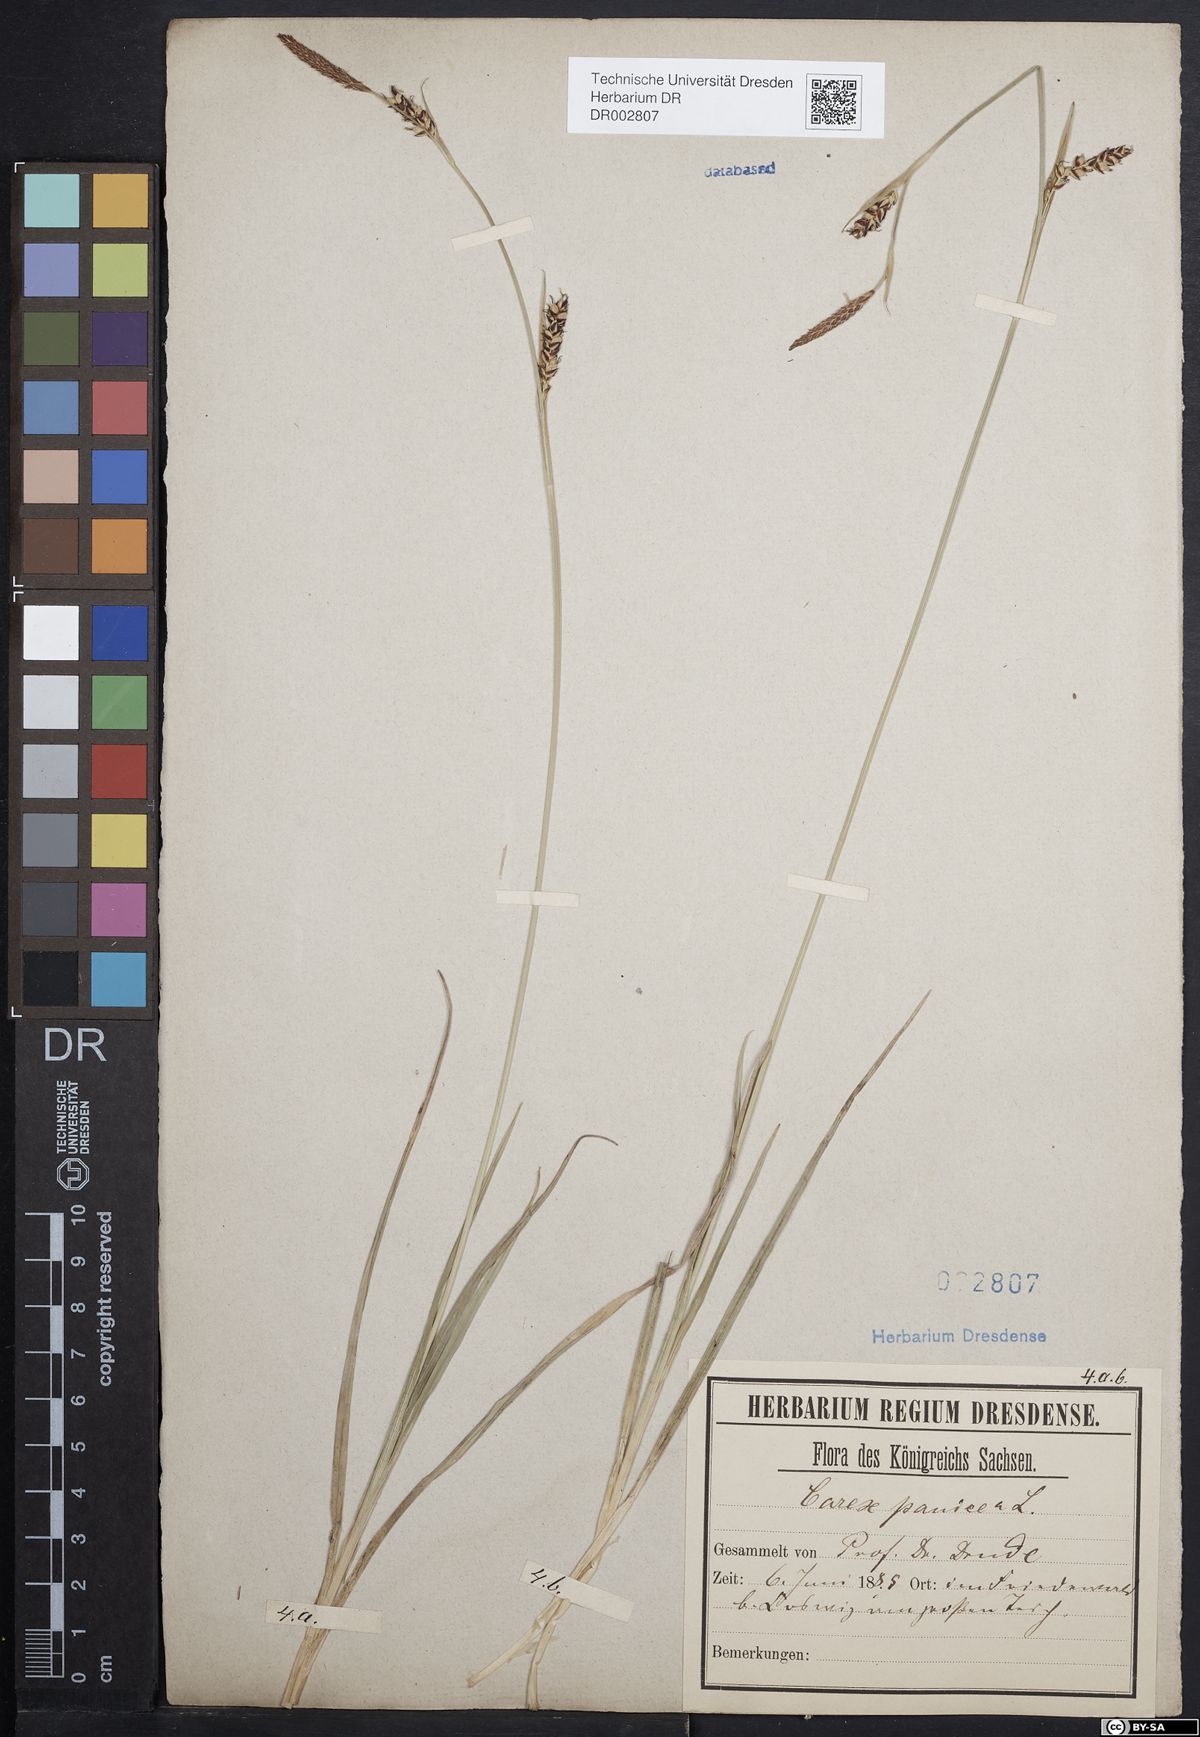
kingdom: Plantae
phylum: Tracheophyta
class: Liliopsida
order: Poales
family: Cyperaceae
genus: Carex
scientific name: Carex panicea
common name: Carnation sedge
